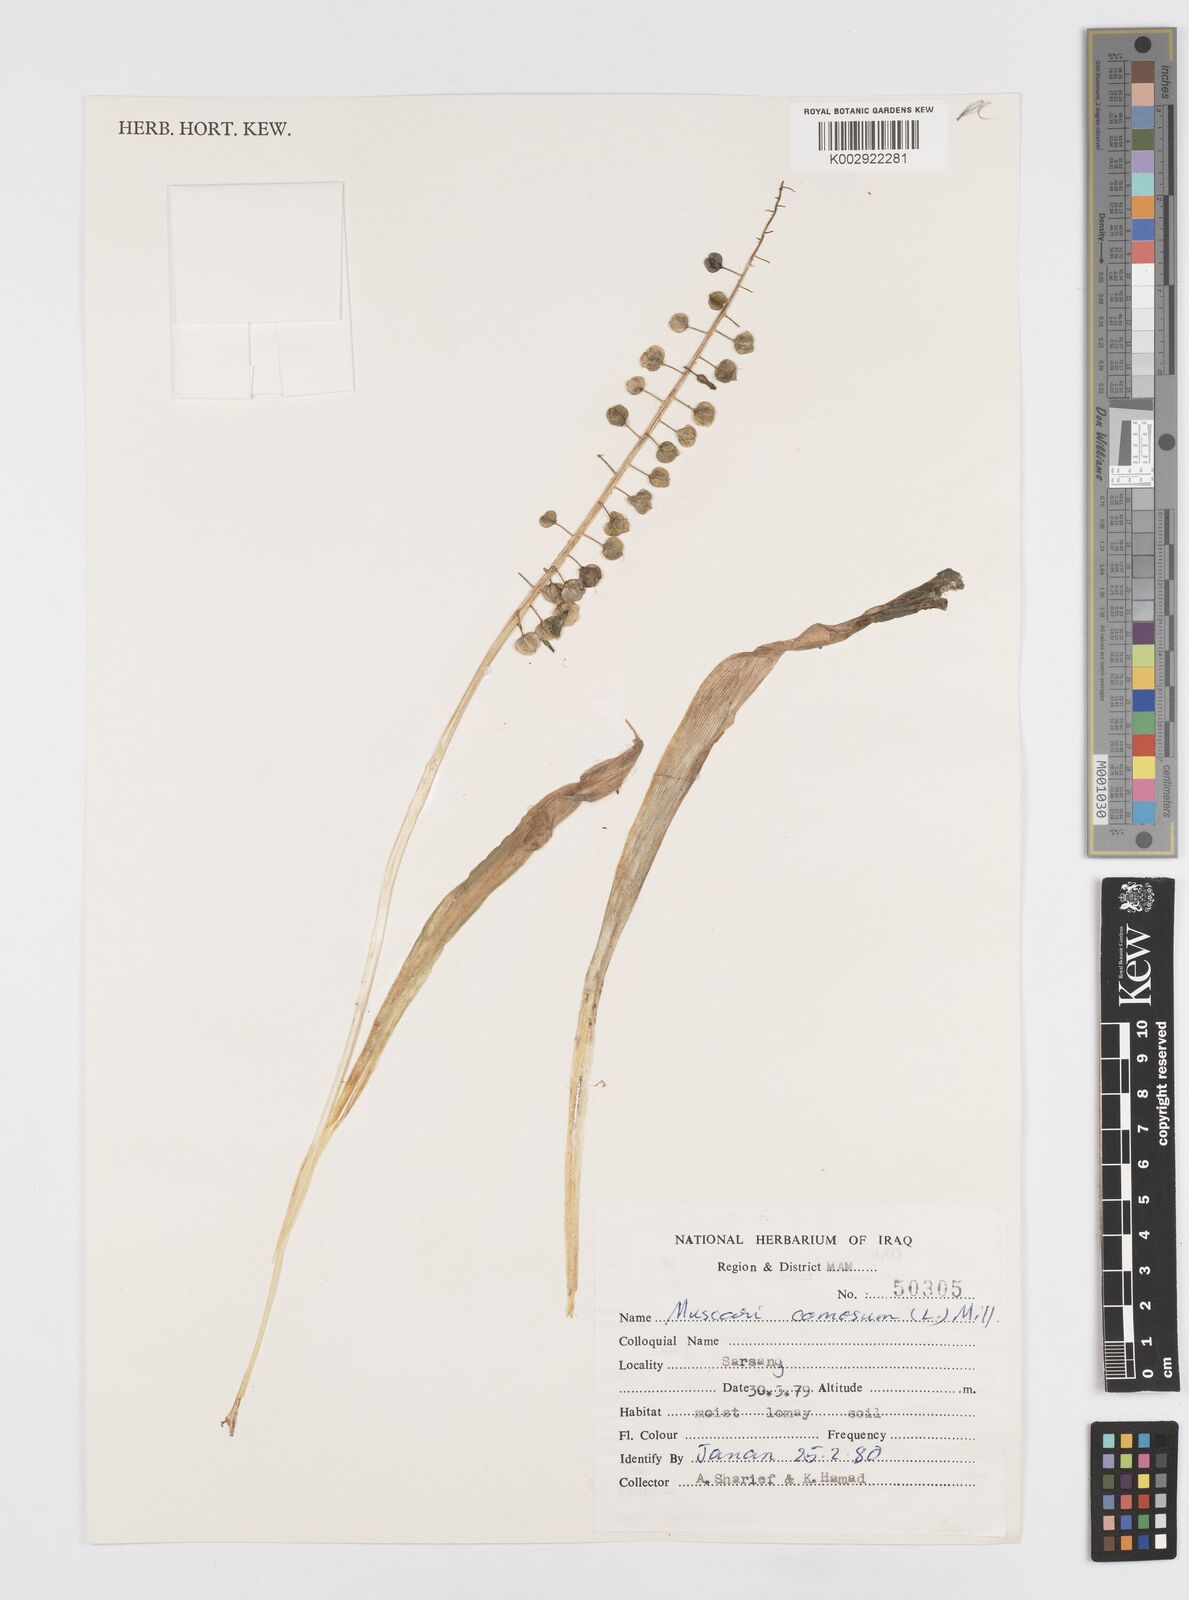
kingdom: Plantae
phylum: Tracheophyta
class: Liliopsida
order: Asparagales
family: Asparagaceae
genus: Muscari
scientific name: Muscari comosum
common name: Tassel hyacinth
